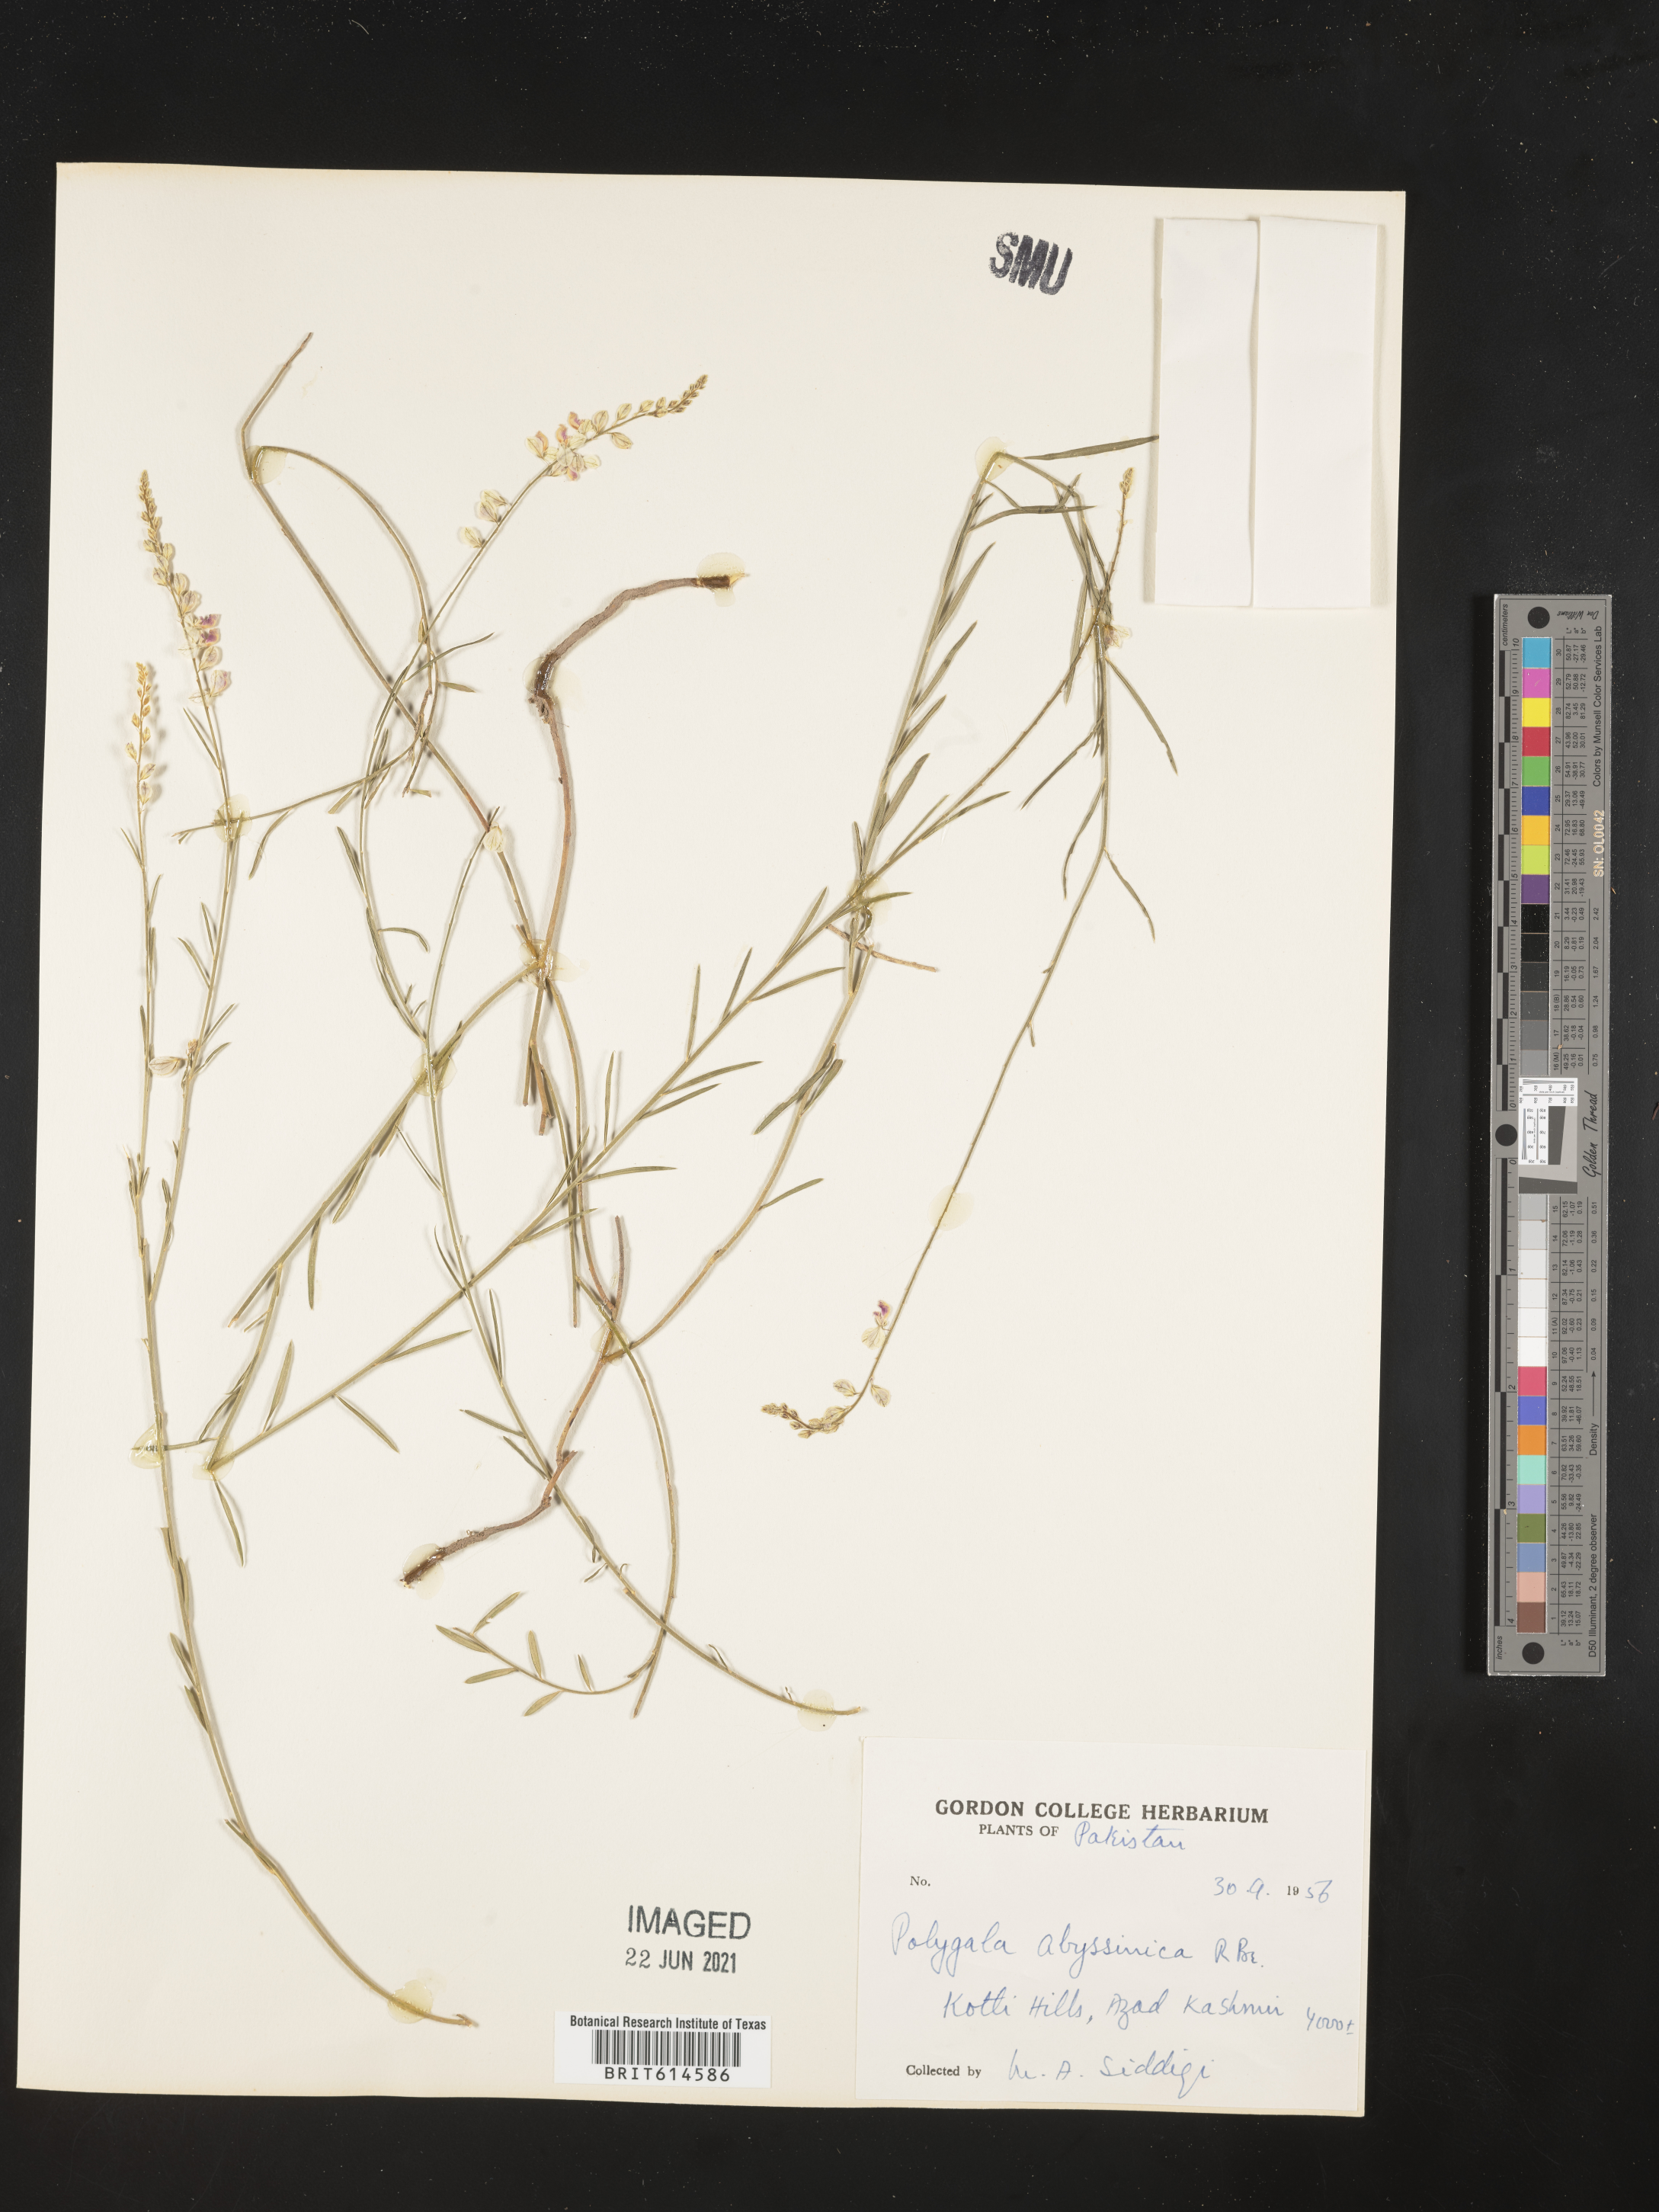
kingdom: Plantae
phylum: Tracheophyta
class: Magnoliopsida
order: Fabales
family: Polygalaceae
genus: Polygala
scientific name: Polygala abyssinica
